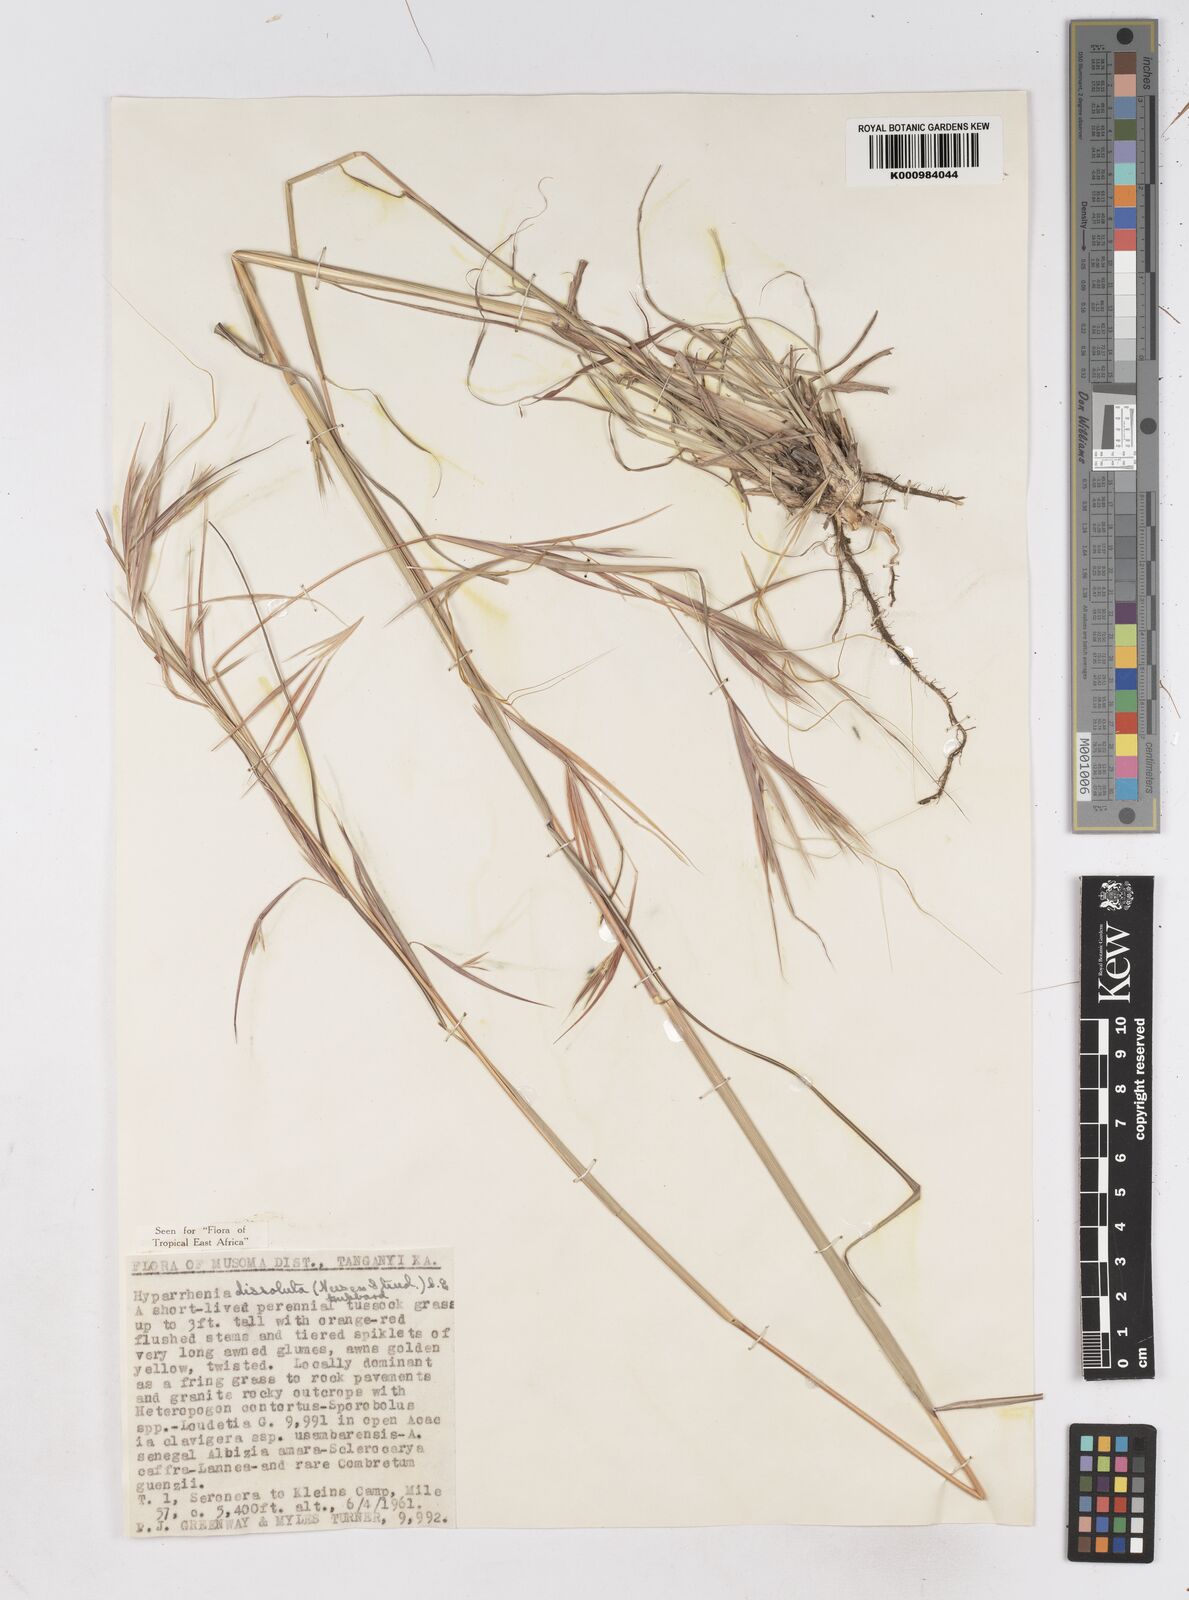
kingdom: Plantae
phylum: Tracheophyta
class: Liliopsida
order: Poales
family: Poaceae
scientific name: Poaceae
